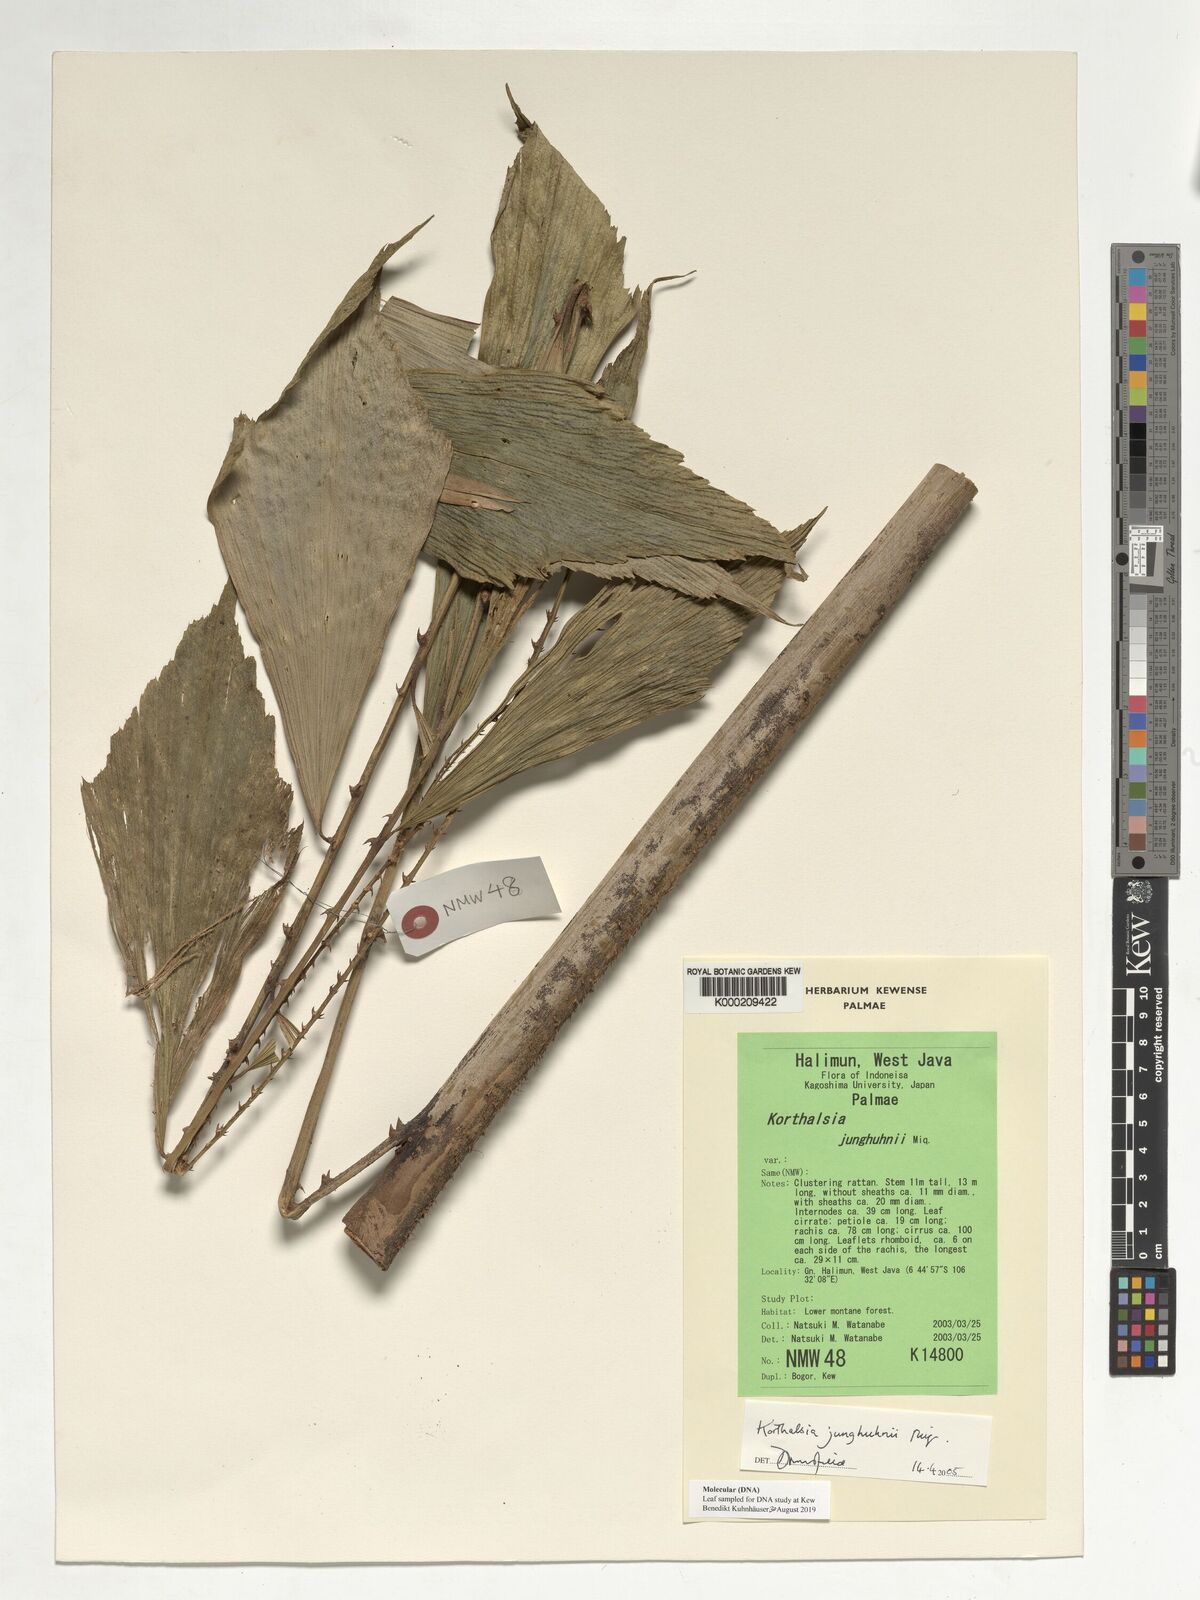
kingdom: Plantae
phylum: Tracheophyta
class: Liliopsida
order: Arecales
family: Arecaceae
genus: Korthalsia
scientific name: Korthalsia junghuhnii
